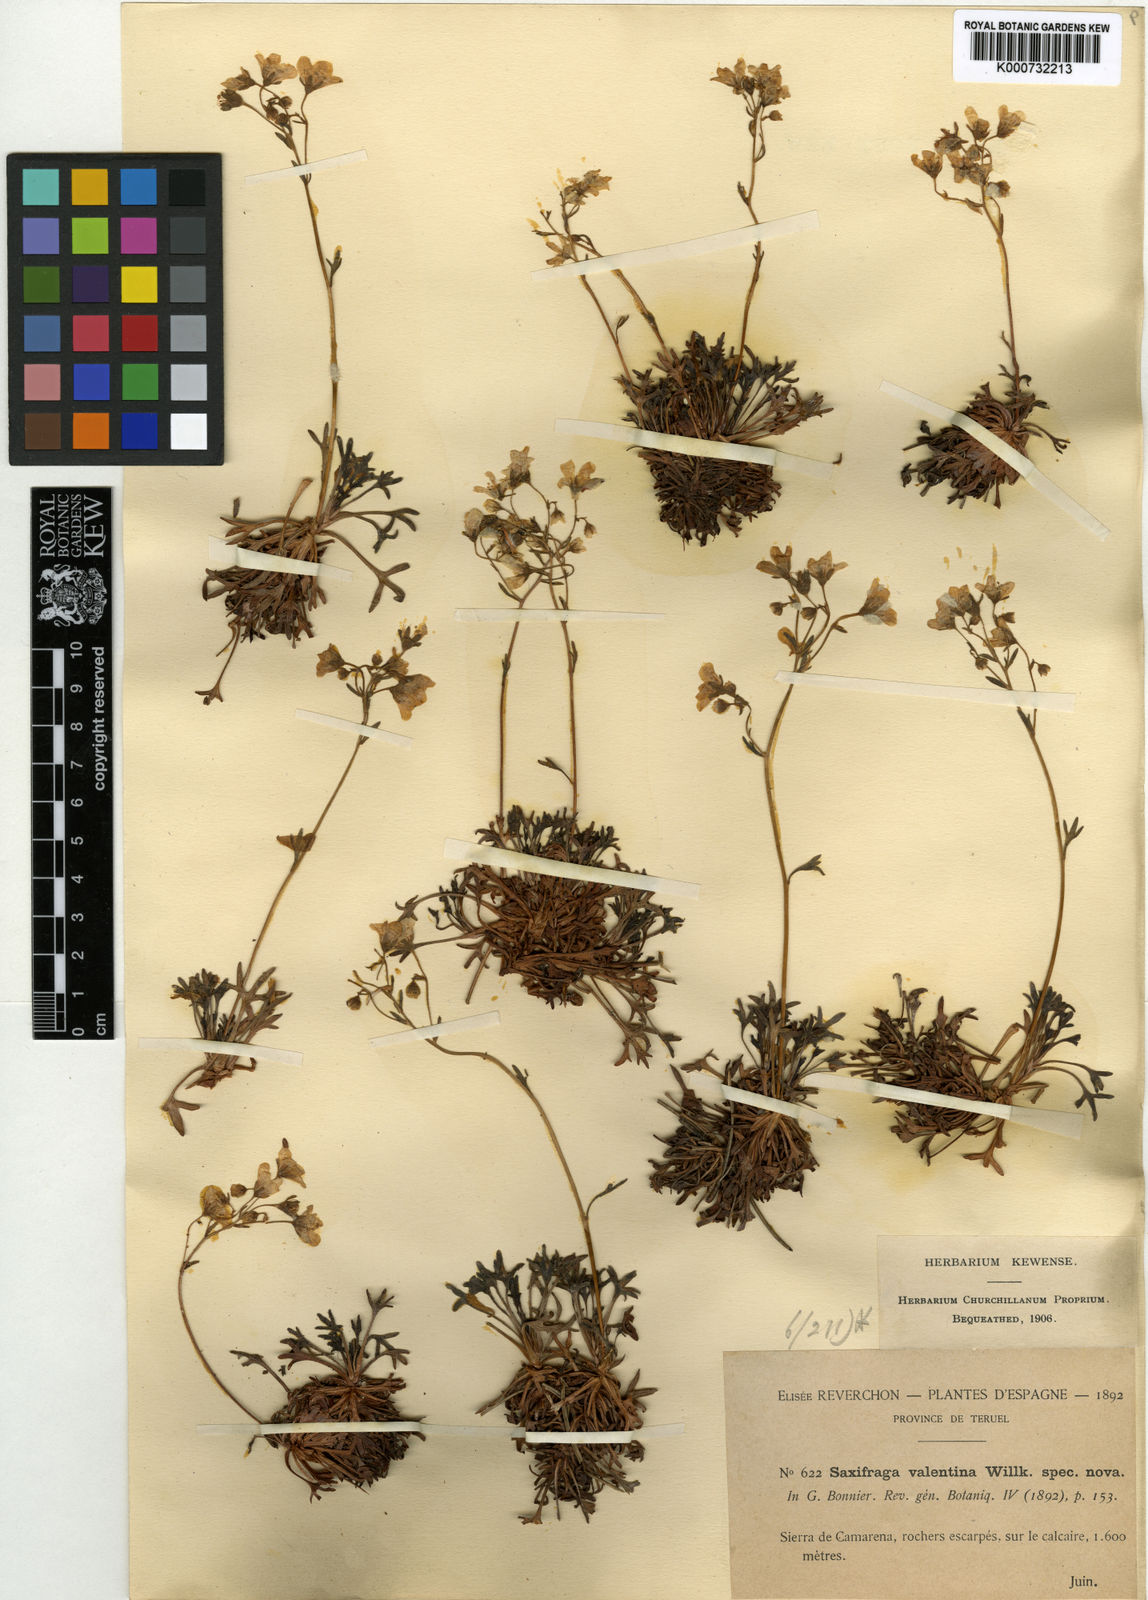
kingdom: Plantae
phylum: Tracheophyta
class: Magnoliopsida
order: Saxifragales
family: Saxifragaceae
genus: Saxifraga
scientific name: Saxifraga cuneata
